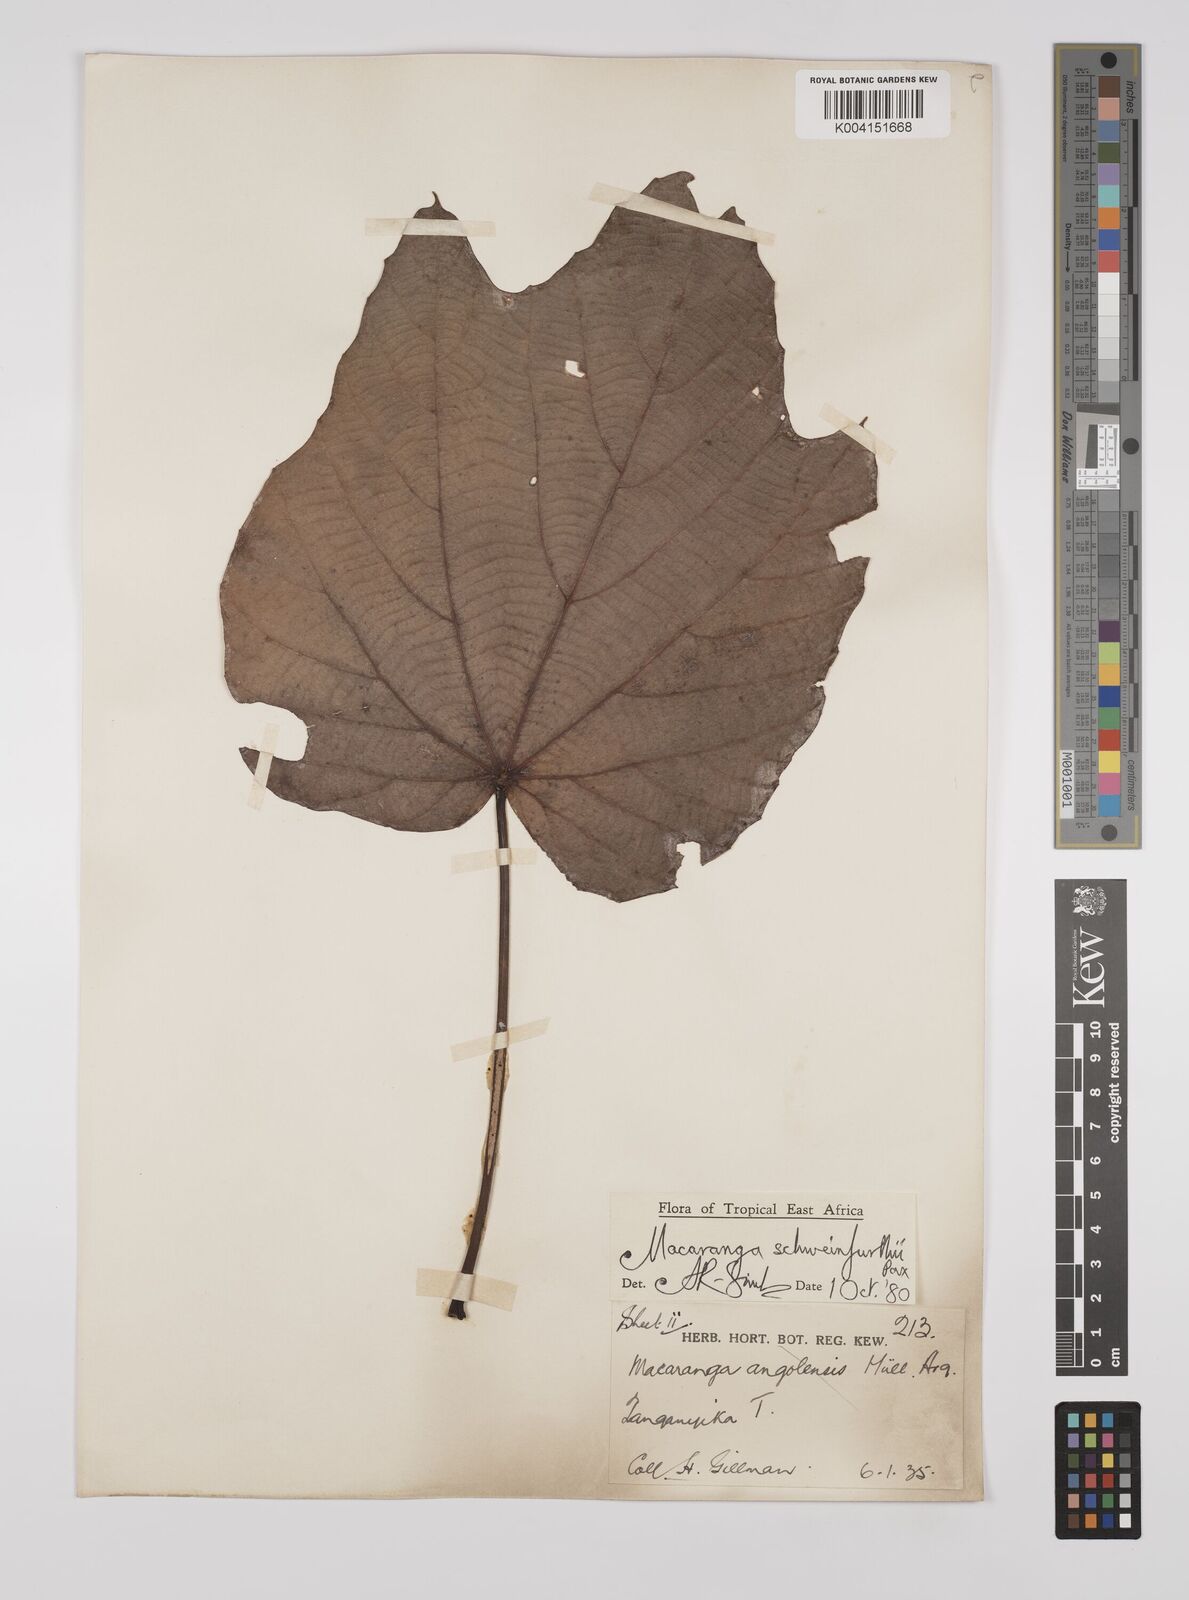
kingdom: Plantae
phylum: Tracheophyta
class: Magnoliopsida
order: Malpighiales
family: Euphorbiaceae
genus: Macaranga
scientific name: Macaranga schweinfurthii
